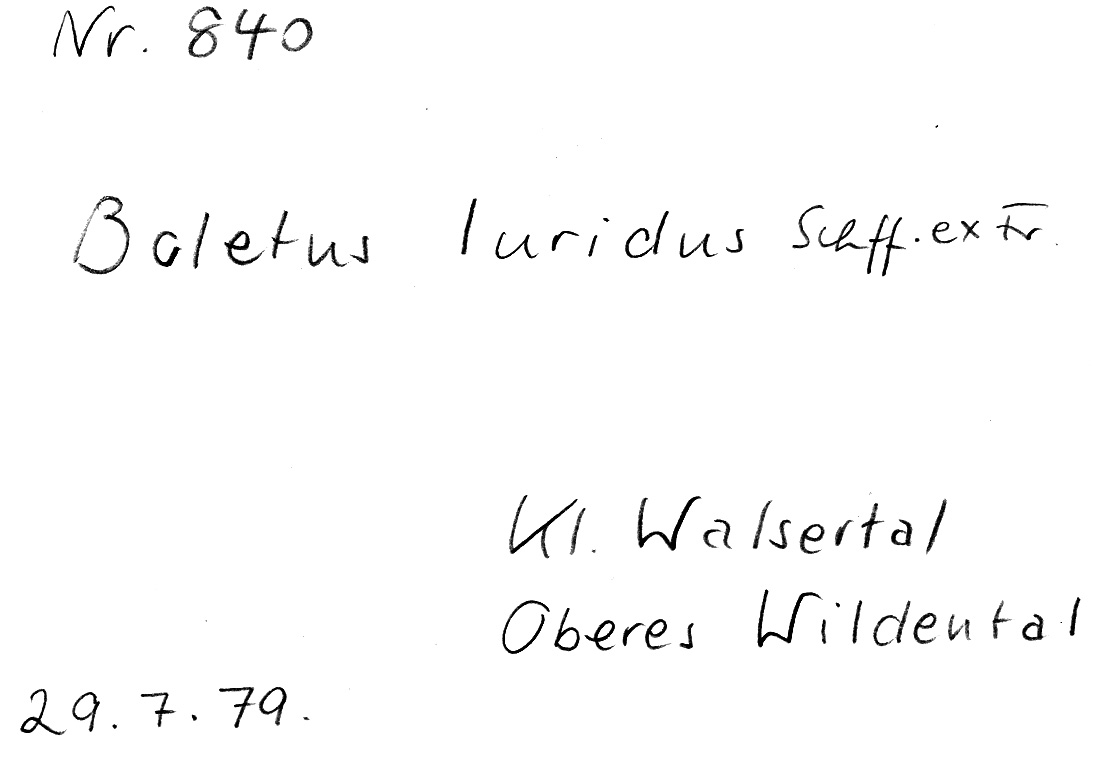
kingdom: Fungi
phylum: Basidiomycota
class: Agaricomycetes
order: Boletales
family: Boletaceae
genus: Suillellus
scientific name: Suillellus luridus
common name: Lurid bolete
